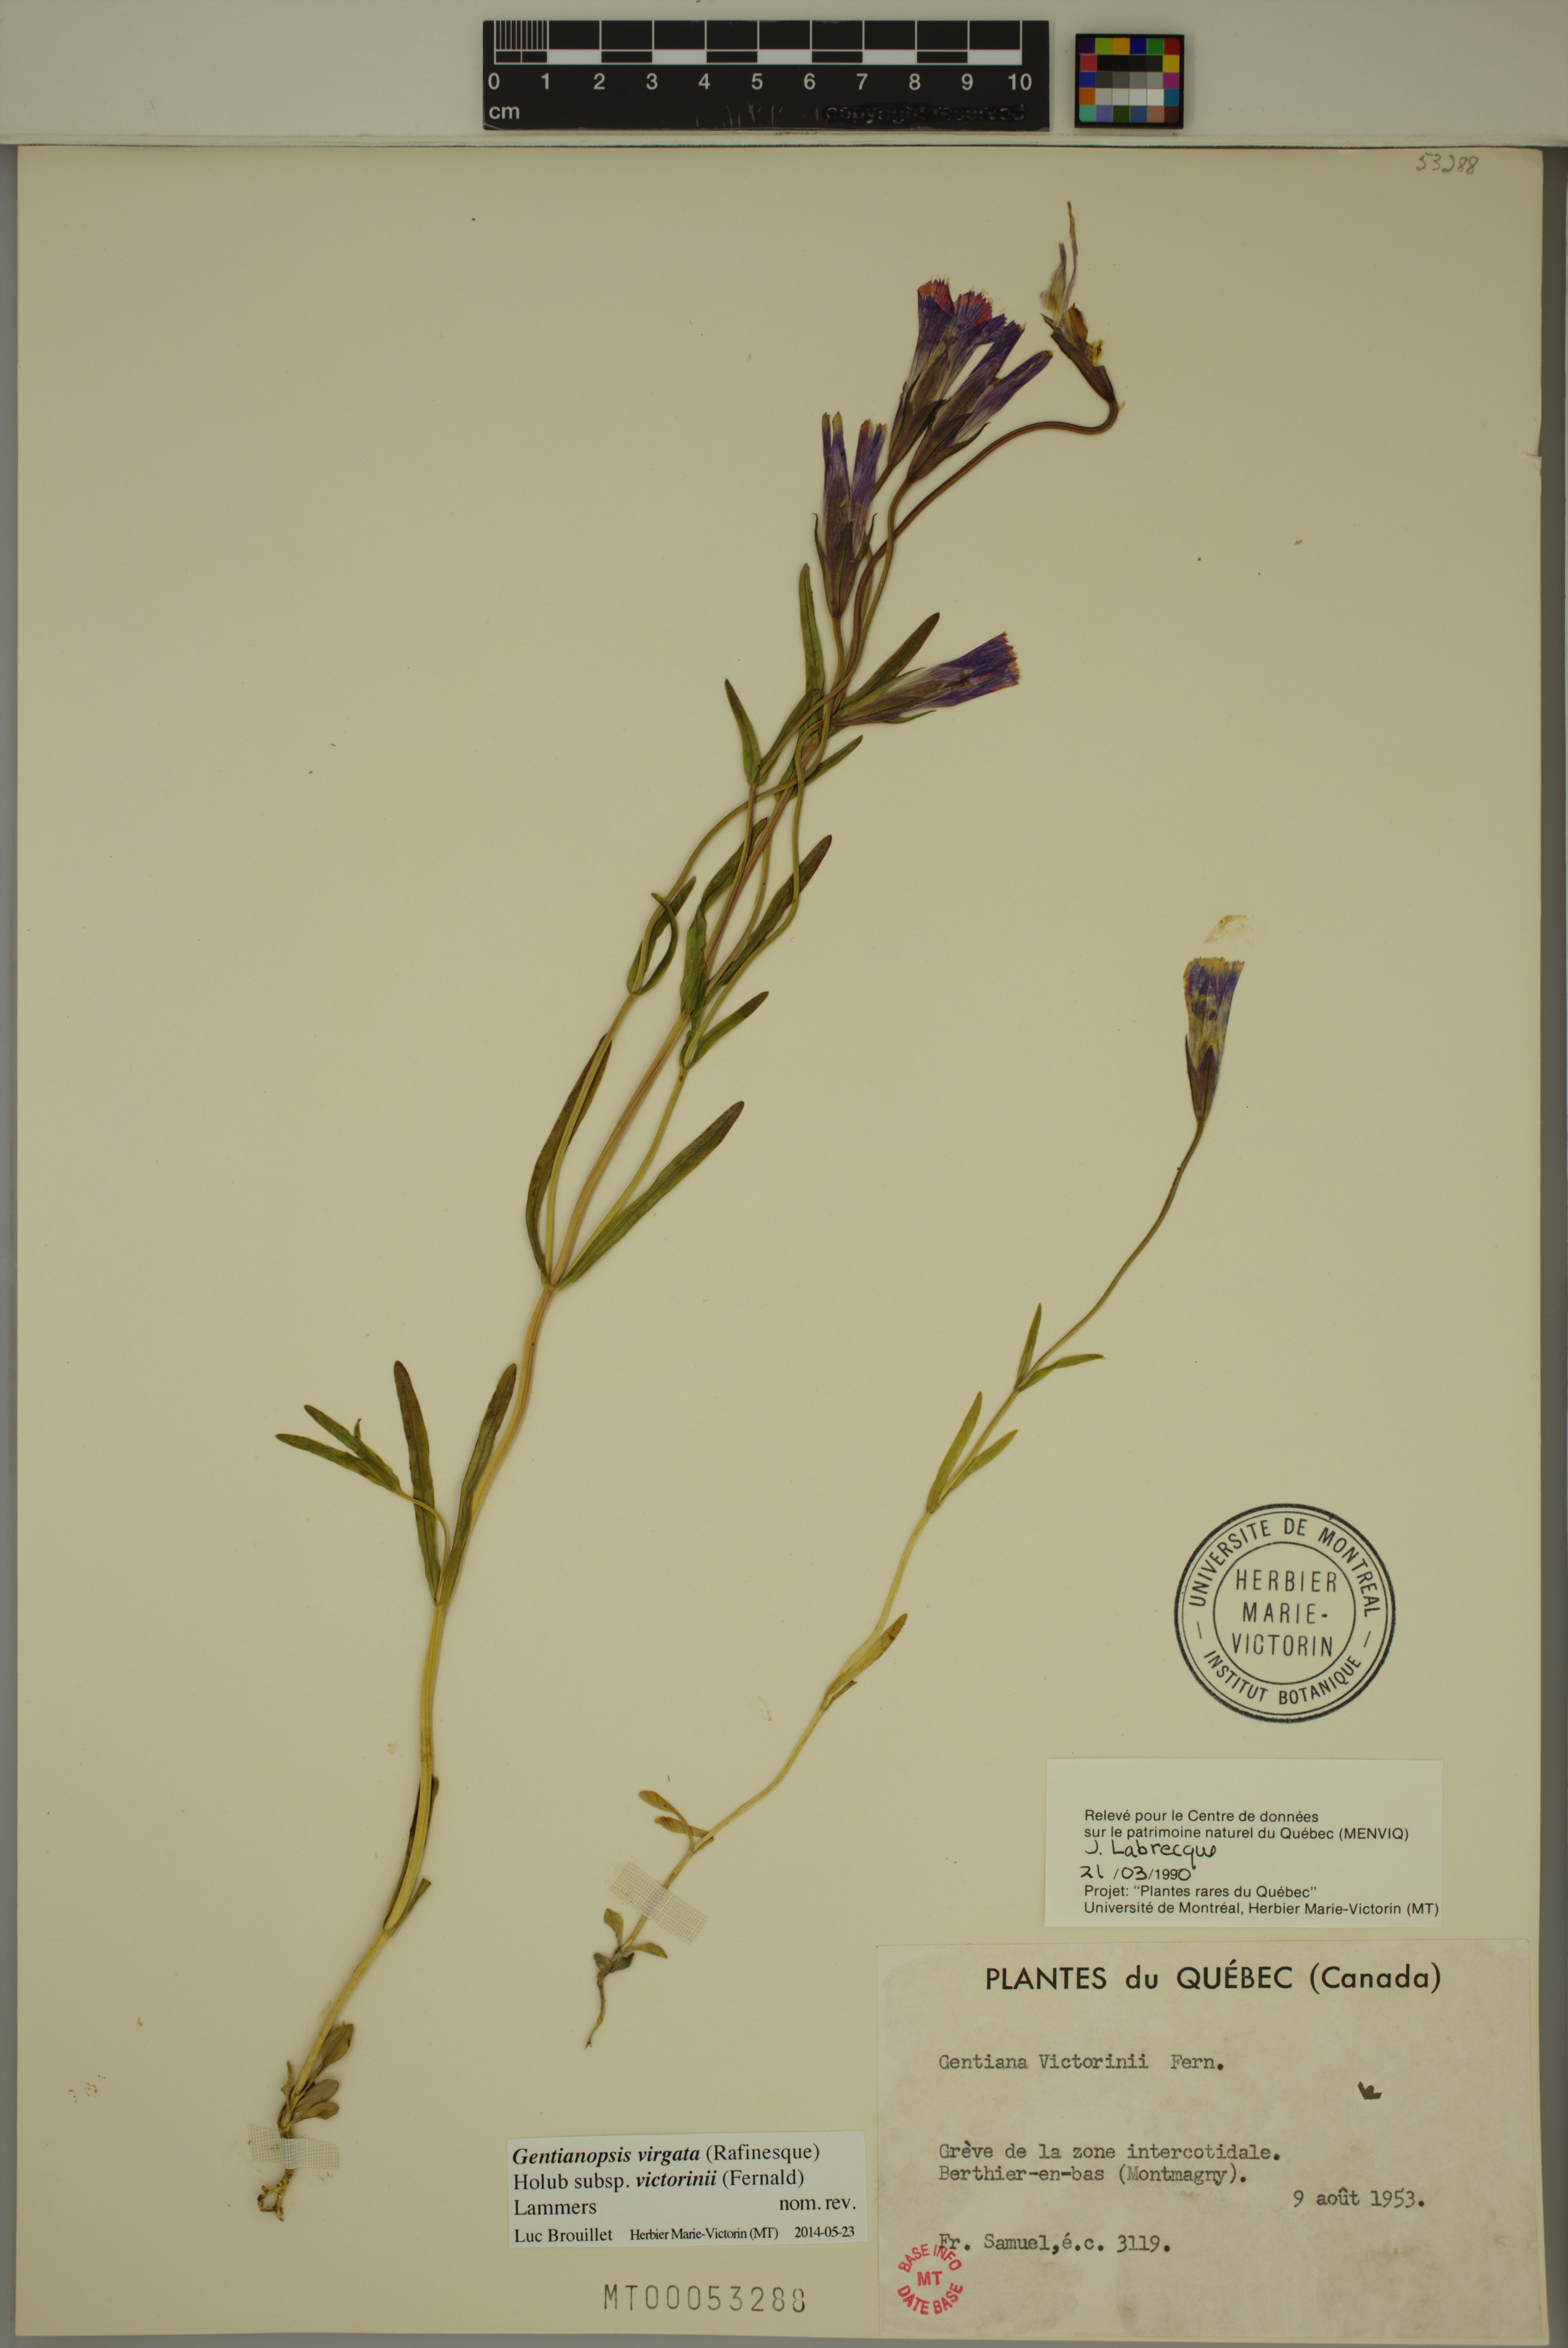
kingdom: Plantae
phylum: Tracheophyta
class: Magnoliopsida
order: Gentianales
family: Gentianaceae
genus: Gentianopsis
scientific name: Gentianopsis victorinii
